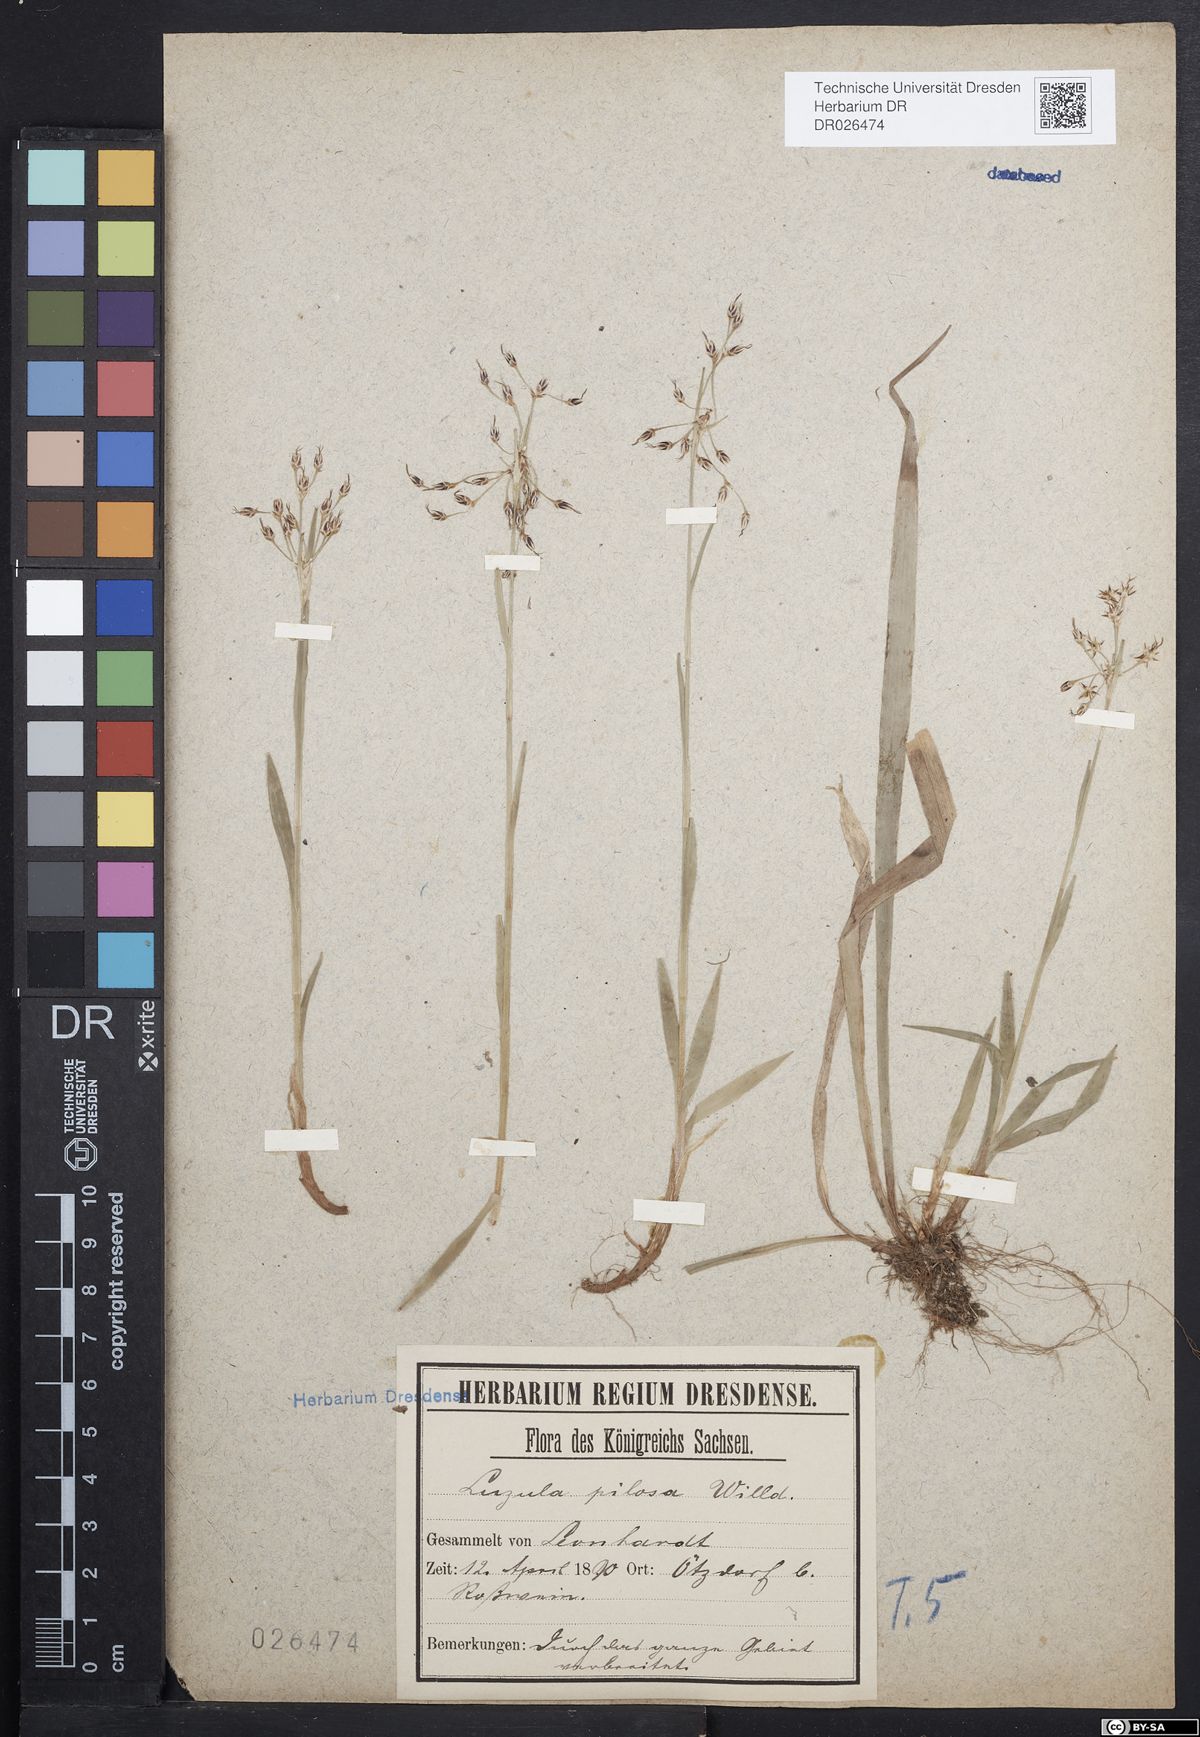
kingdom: Plantae
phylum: Tracheophyta
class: Liliopsida
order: Poales
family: Juncaceae
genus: Luzula
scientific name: Luzula pilosa
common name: Hairy wood-rush
